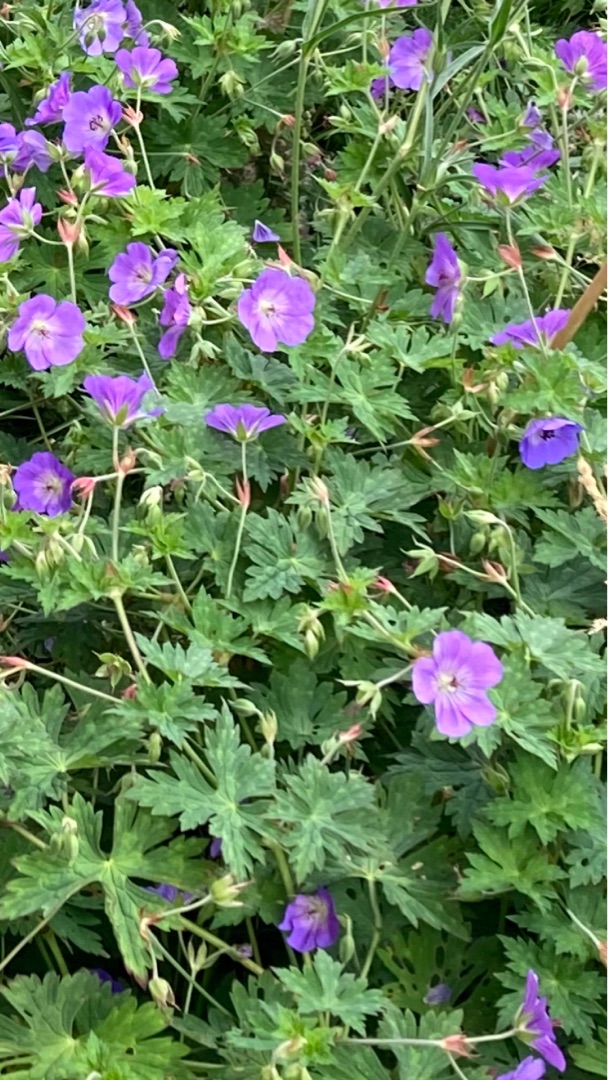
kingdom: Plantae
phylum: Tracheophyta
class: Magnoliopsida
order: Geraniales
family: Geraniaceae
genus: Geranium
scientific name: Geranium
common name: Storkenæbslægten
